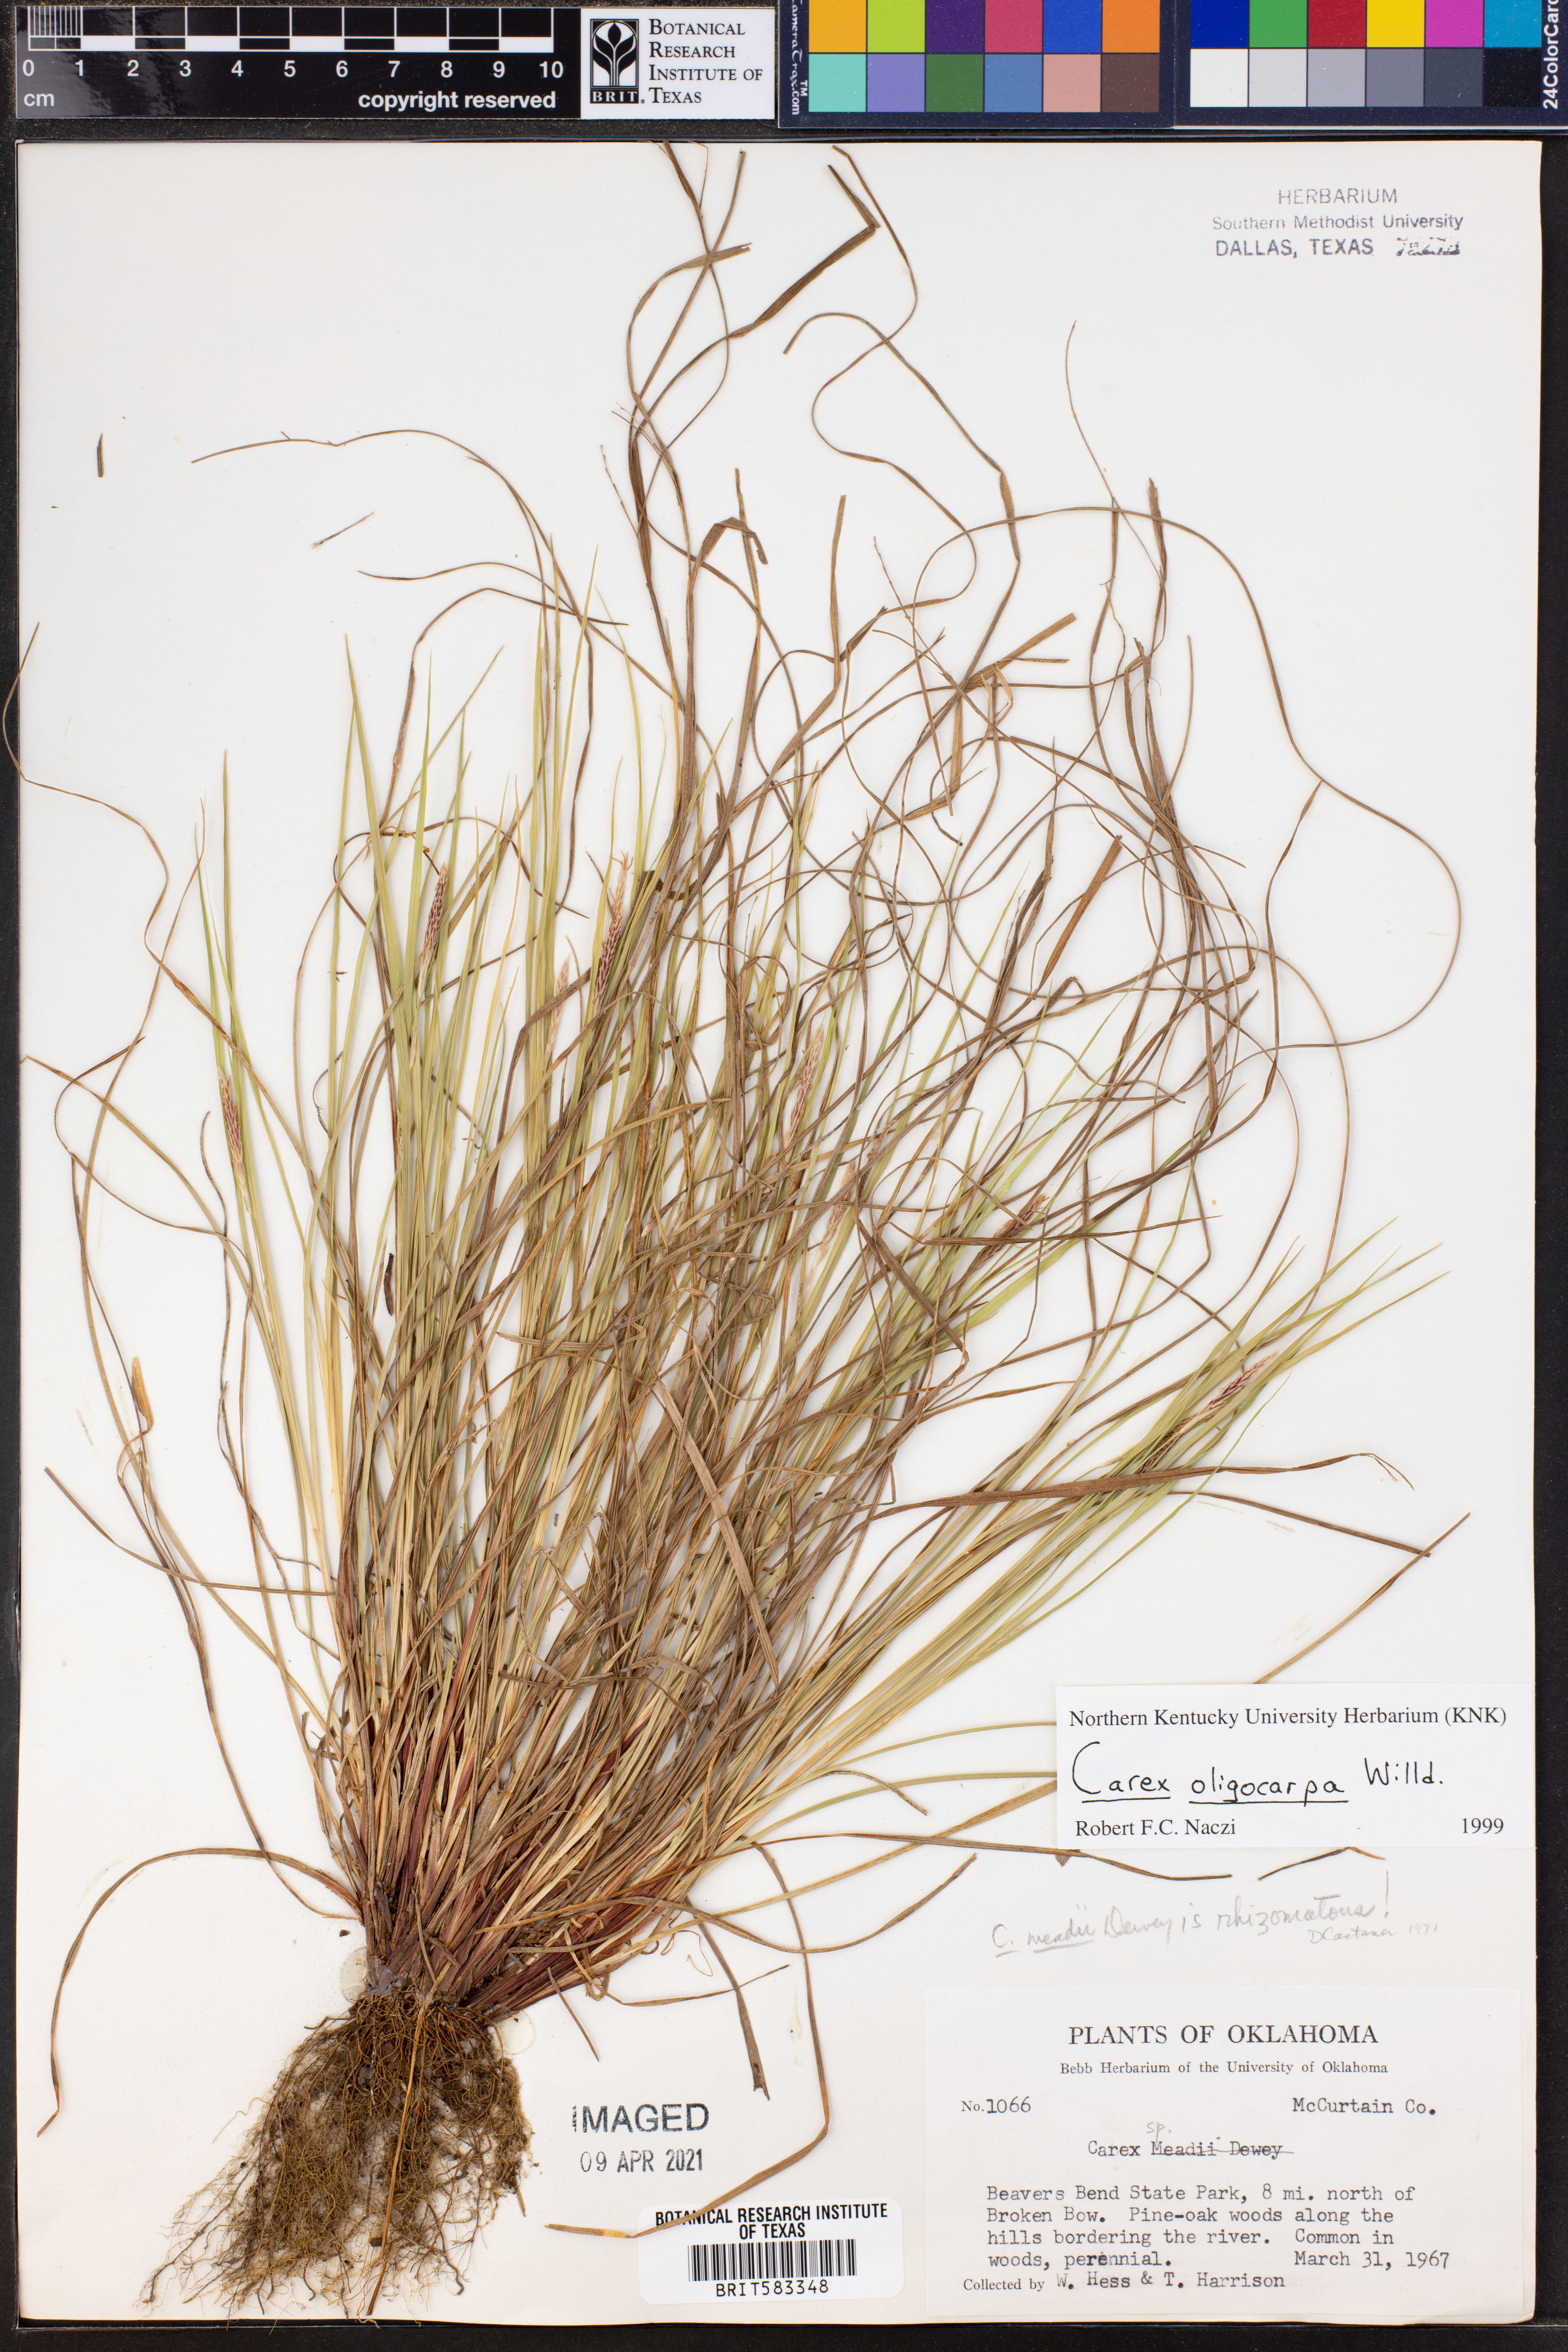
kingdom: Plantae
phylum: Tracheophyta
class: Liliopsida
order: Poales
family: Cyperaceae
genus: Carex
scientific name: Carex oligocarpa
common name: Eastern few-fruited sedge
